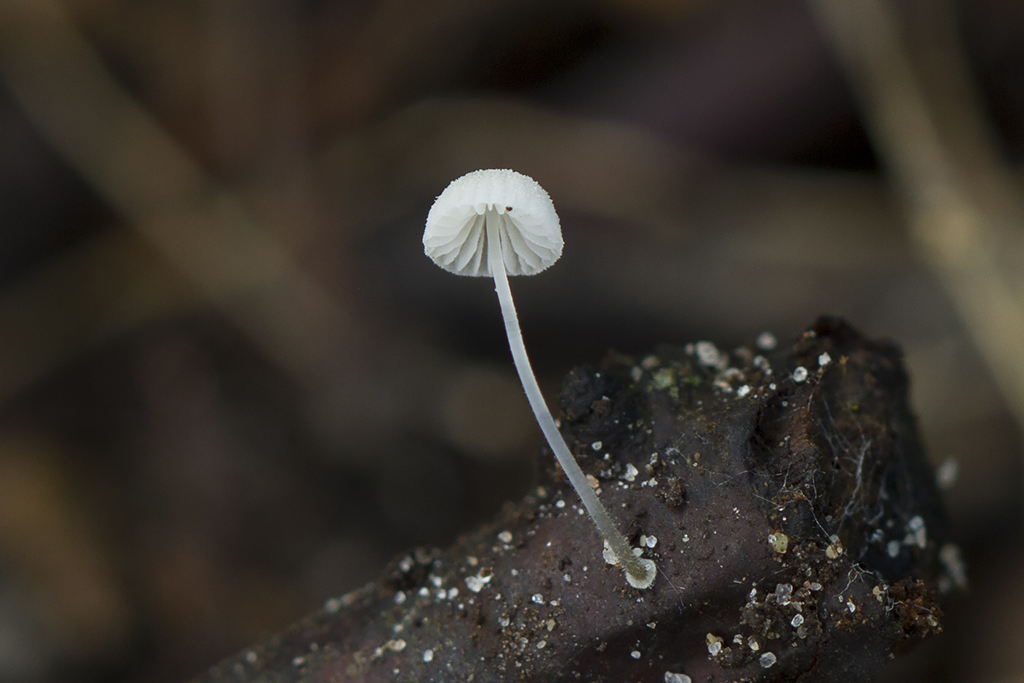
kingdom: Fungi
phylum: Basidiomycota
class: Agaricomycetes
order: Agaricales
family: Mycenaceae
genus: Mycena
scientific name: Mycena tenerrima
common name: pudret huesvamp
